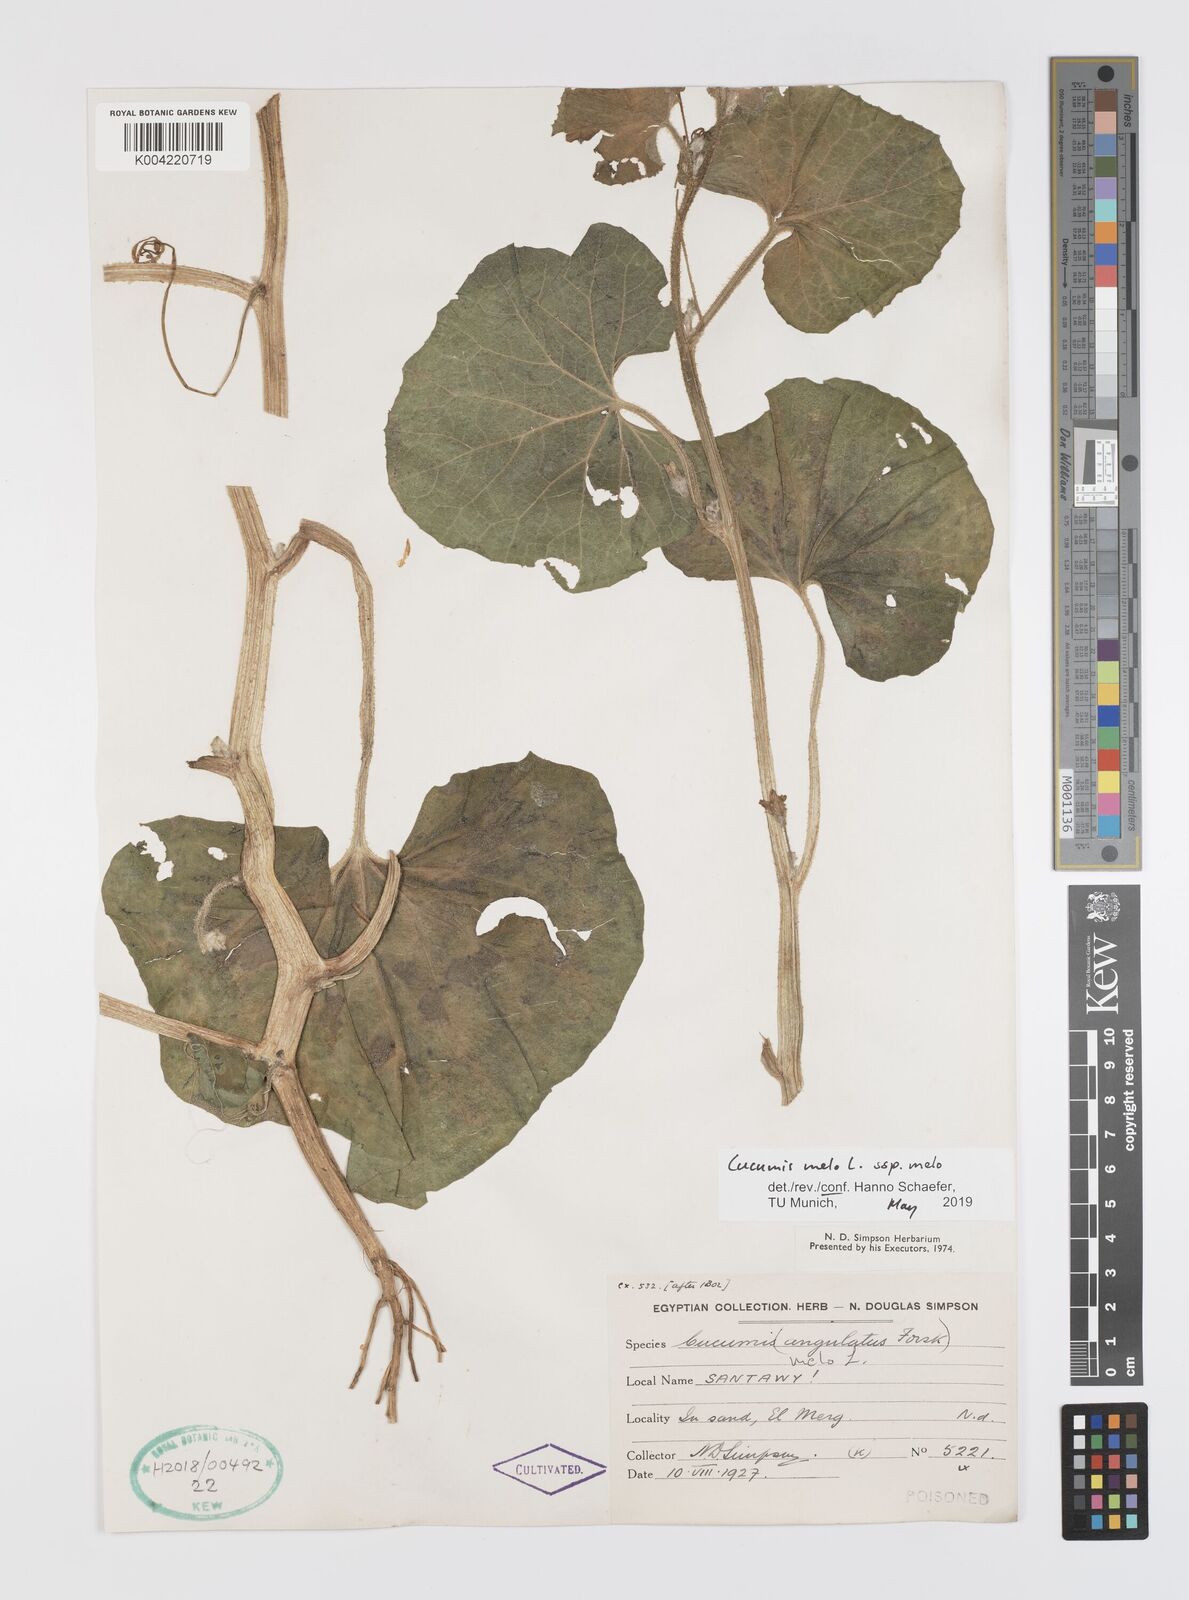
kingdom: Plantae
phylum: Tracheophyta
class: Magnoliopsida
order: Cucurbitales
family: Cucurbitaceae
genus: Cucumis
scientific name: Cucumis melo
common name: Melon
